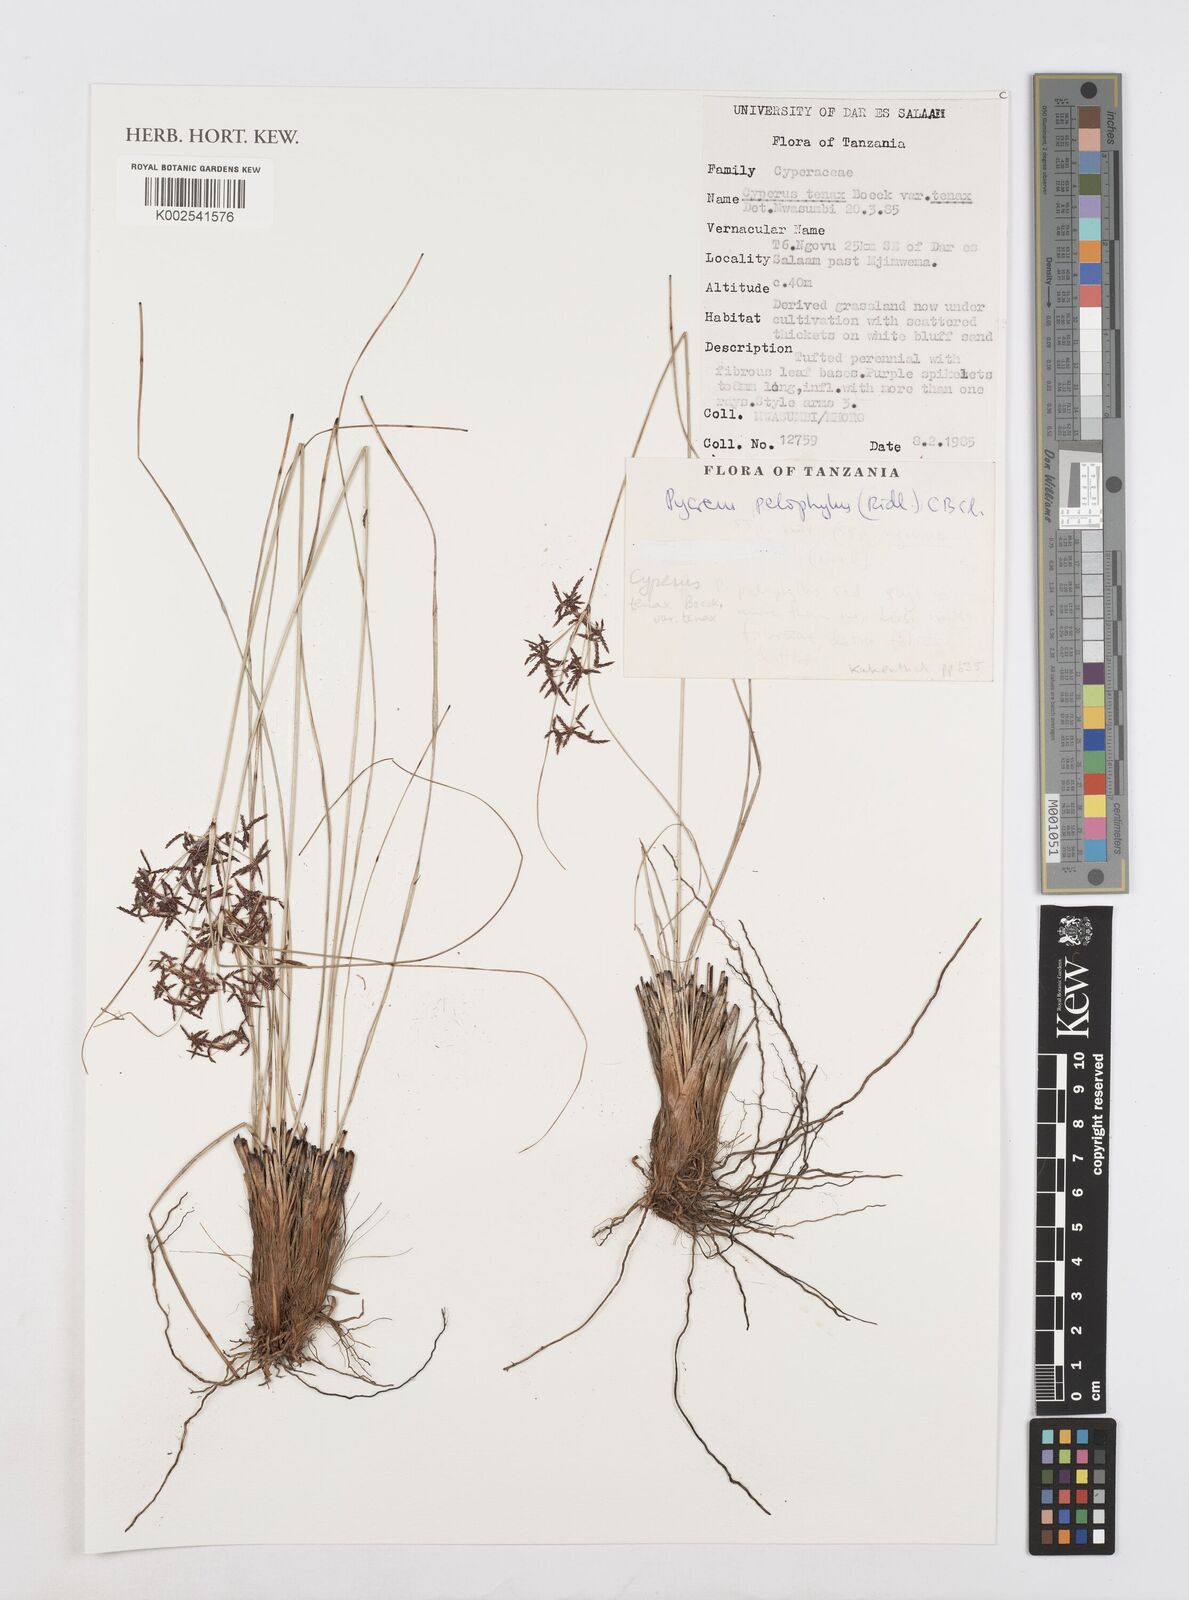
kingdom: Plantae
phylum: Tracheophyta
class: Liliopsida
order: Poales
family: Cyperaceae
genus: Cyperus
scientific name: Cyperus pelophilus
